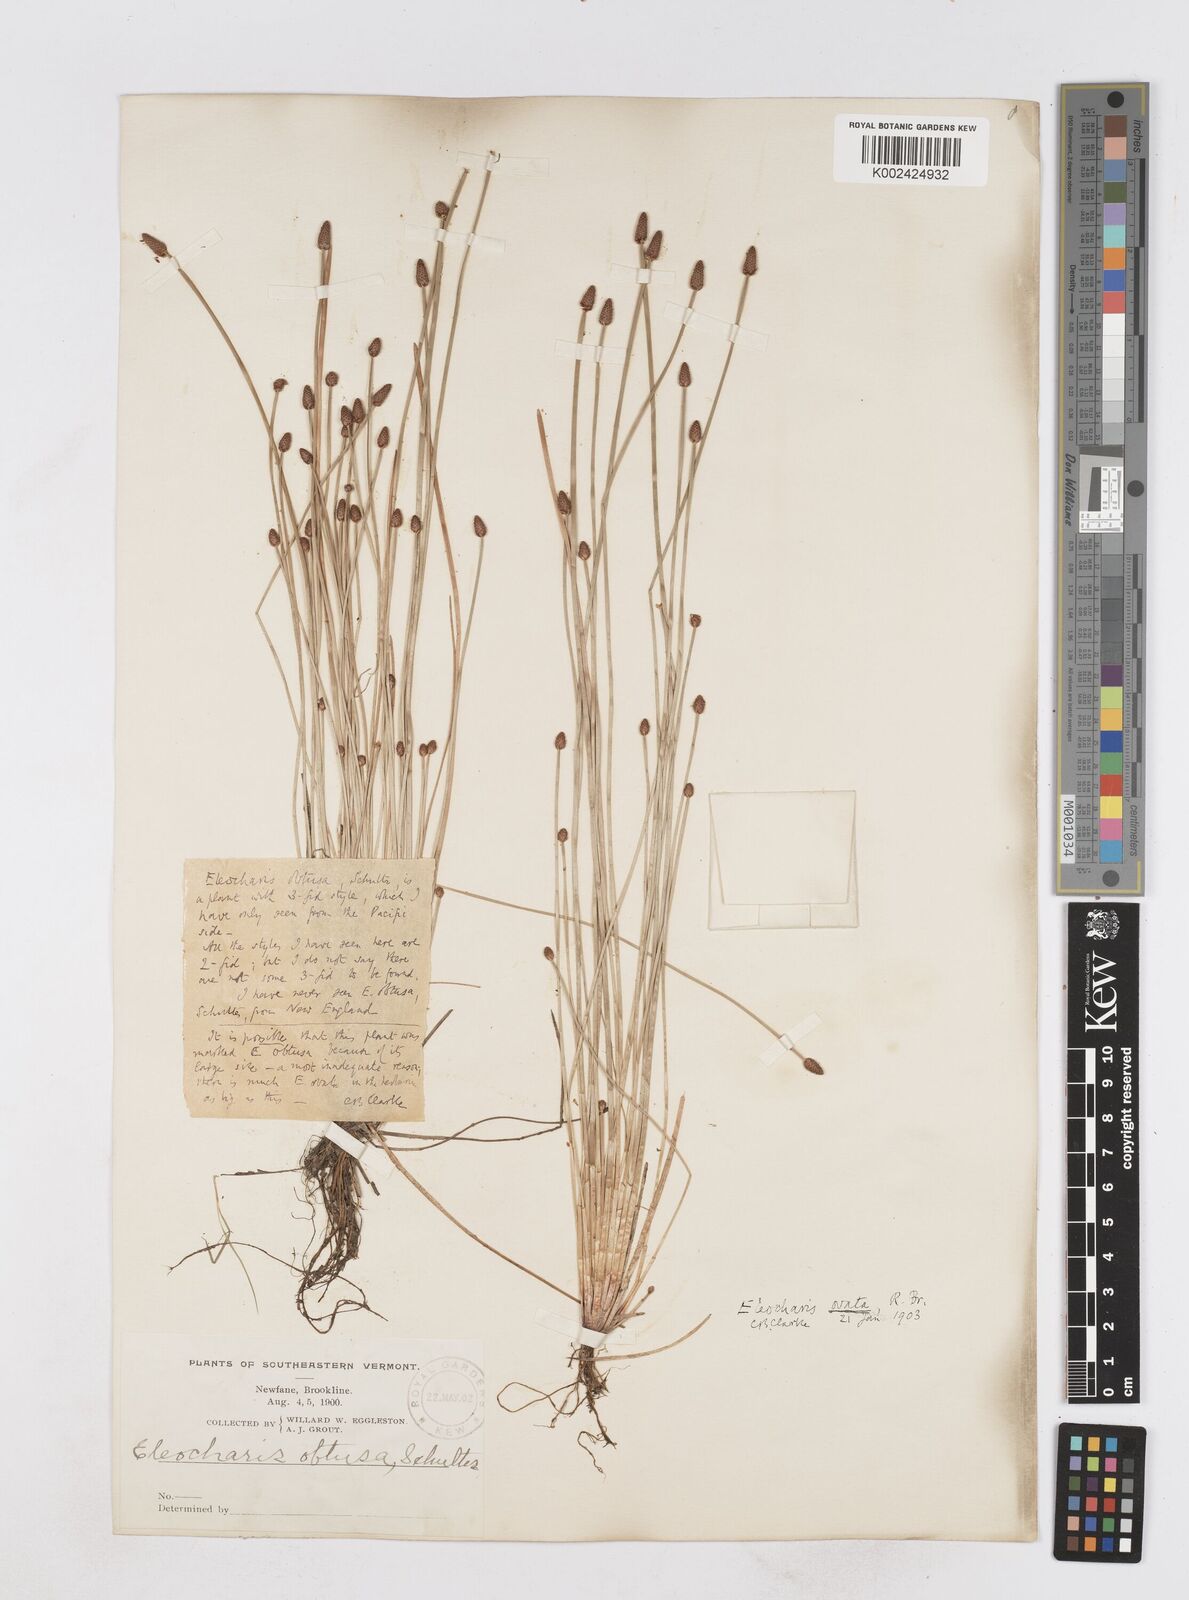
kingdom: Plantae
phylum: Tracheophyta
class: Liliopsida
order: Poales
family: Cyperaceae
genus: Eleocharis
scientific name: Eleocharis ovata
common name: Oval spike-rush
